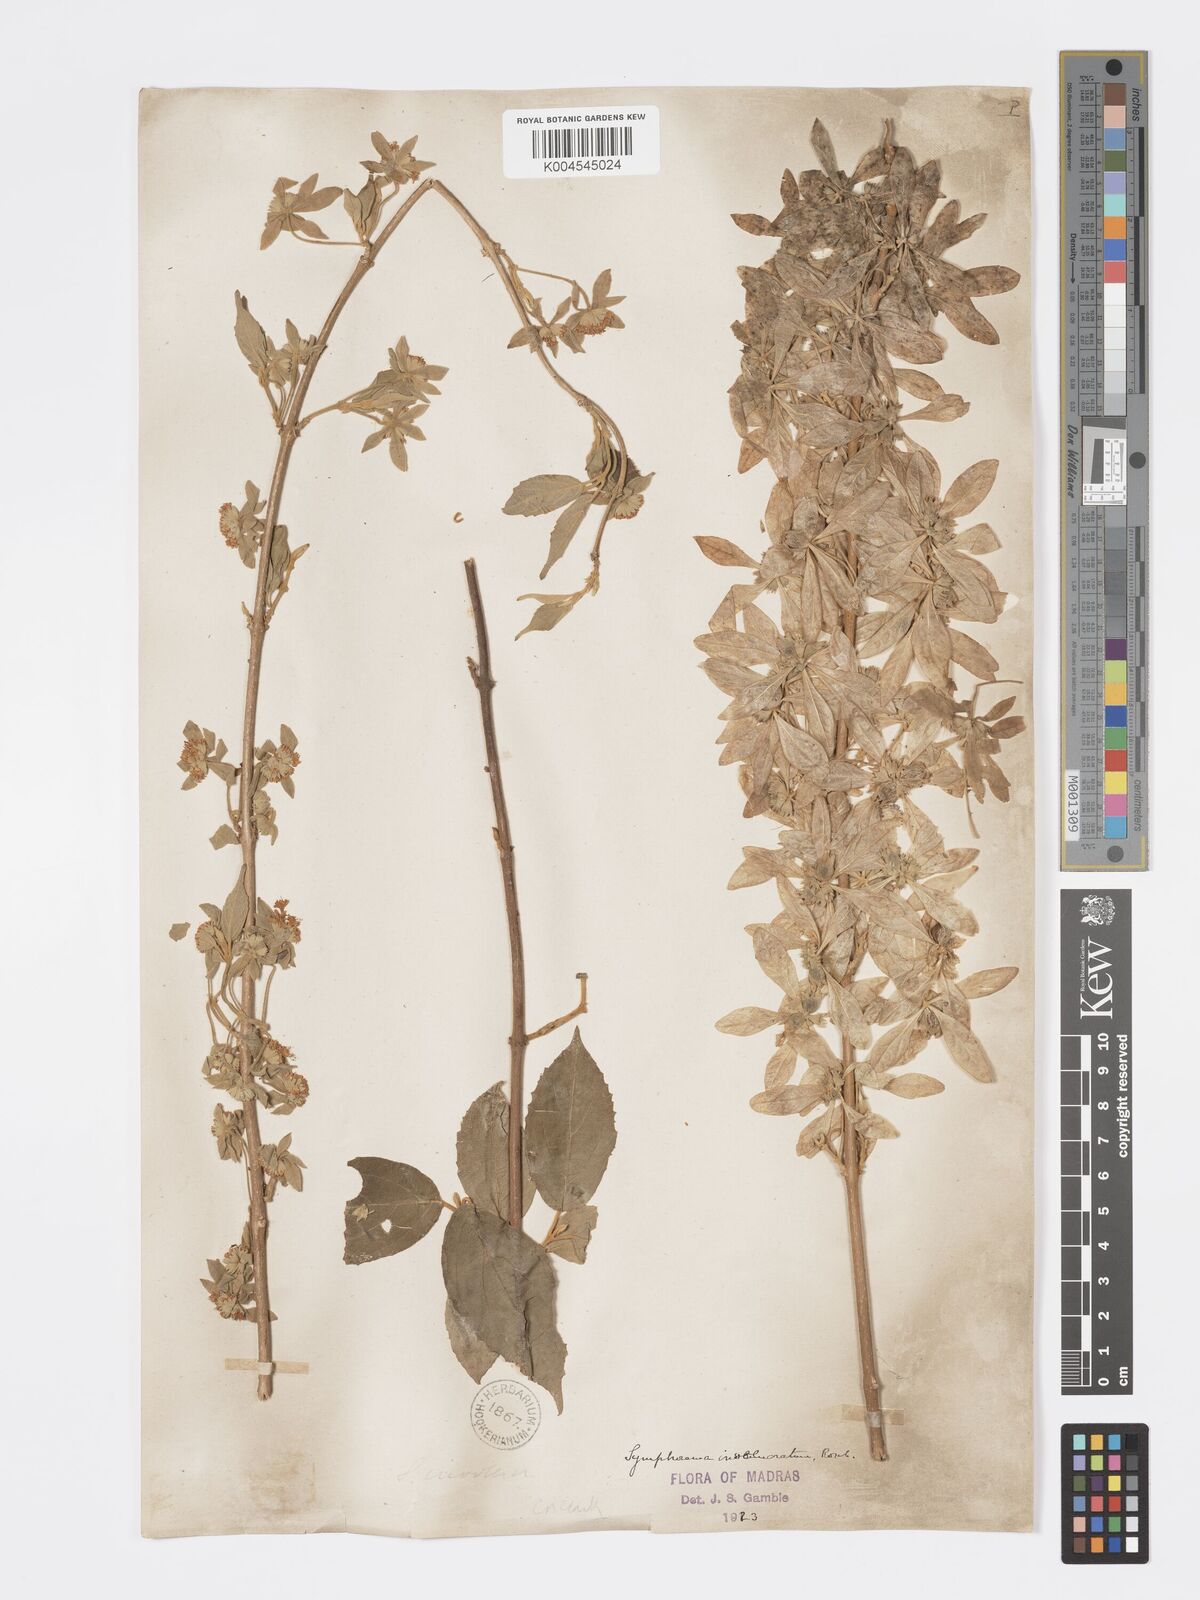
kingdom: Plantae
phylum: Tracheophyta
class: Magnoliopsida
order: Lamiales
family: Lamiaceae
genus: Symphorema
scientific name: Symphorema involucratum
